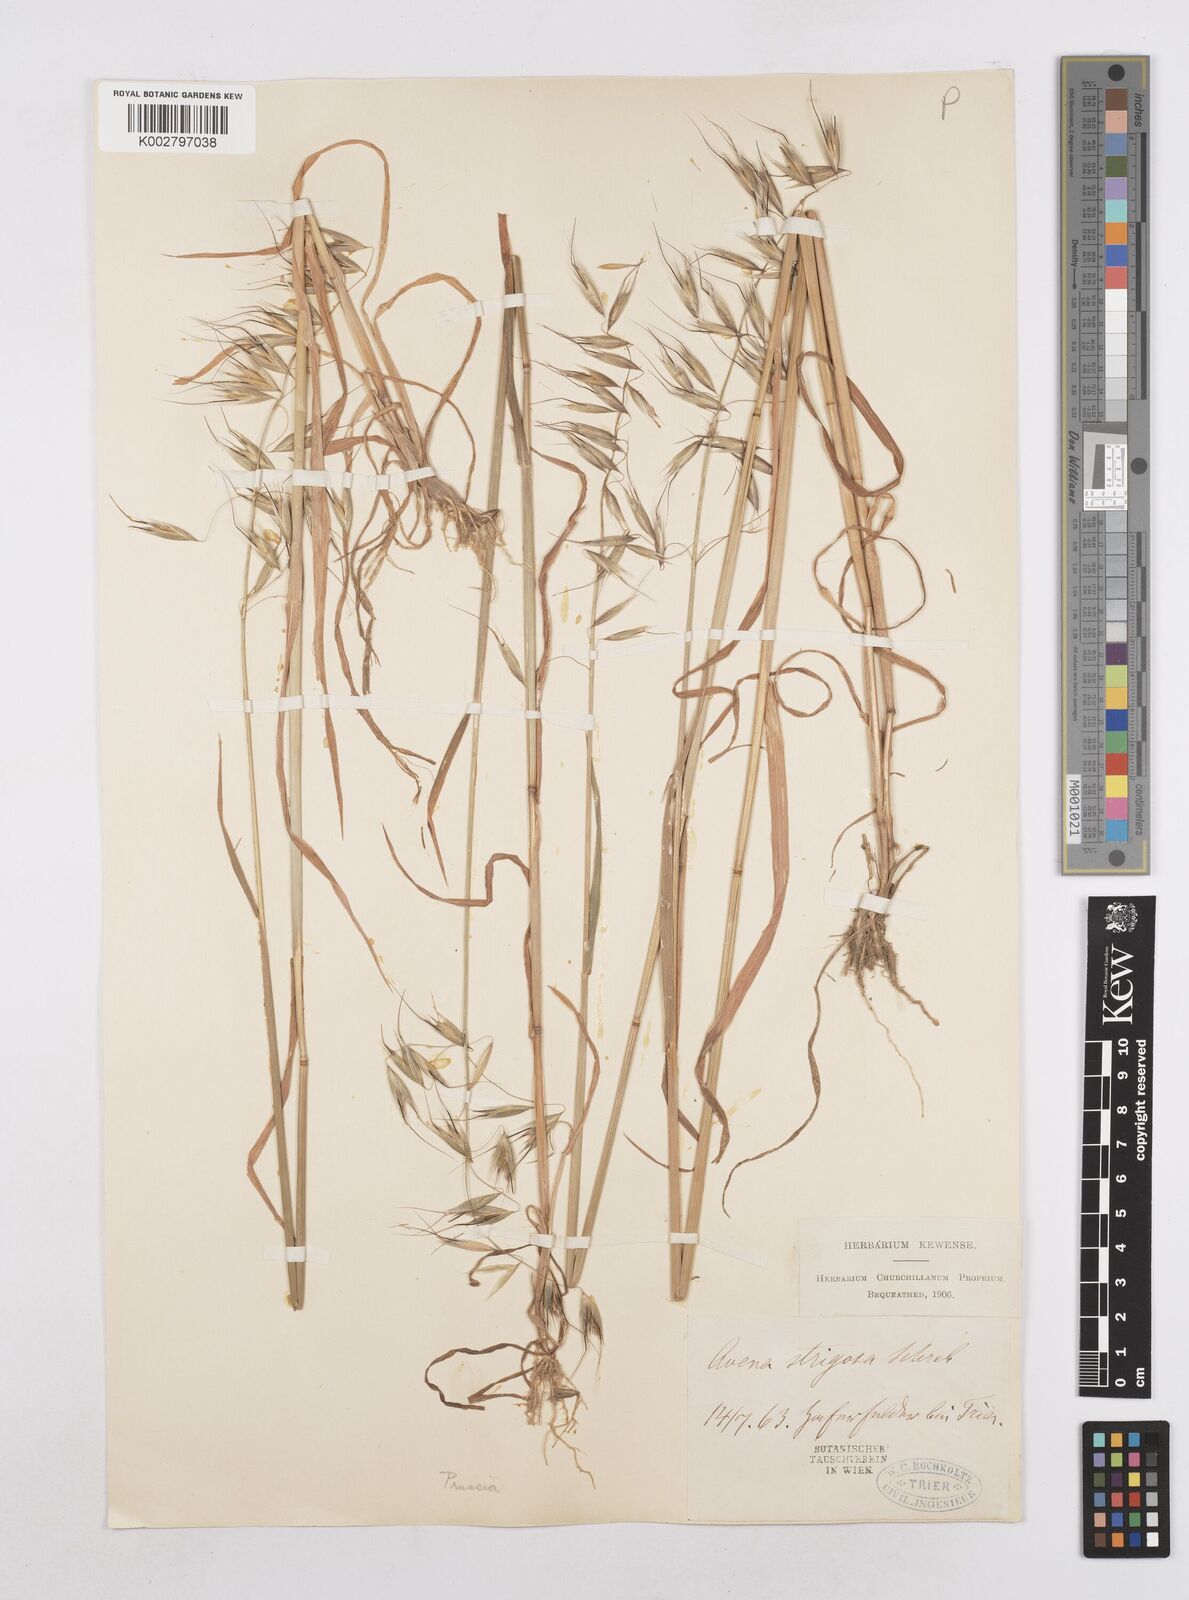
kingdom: Plantae
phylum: Tracheophyta
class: Liliopsida
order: Poales
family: Poaceae
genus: Avena
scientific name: Avena strigosa
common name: Bristle oat
